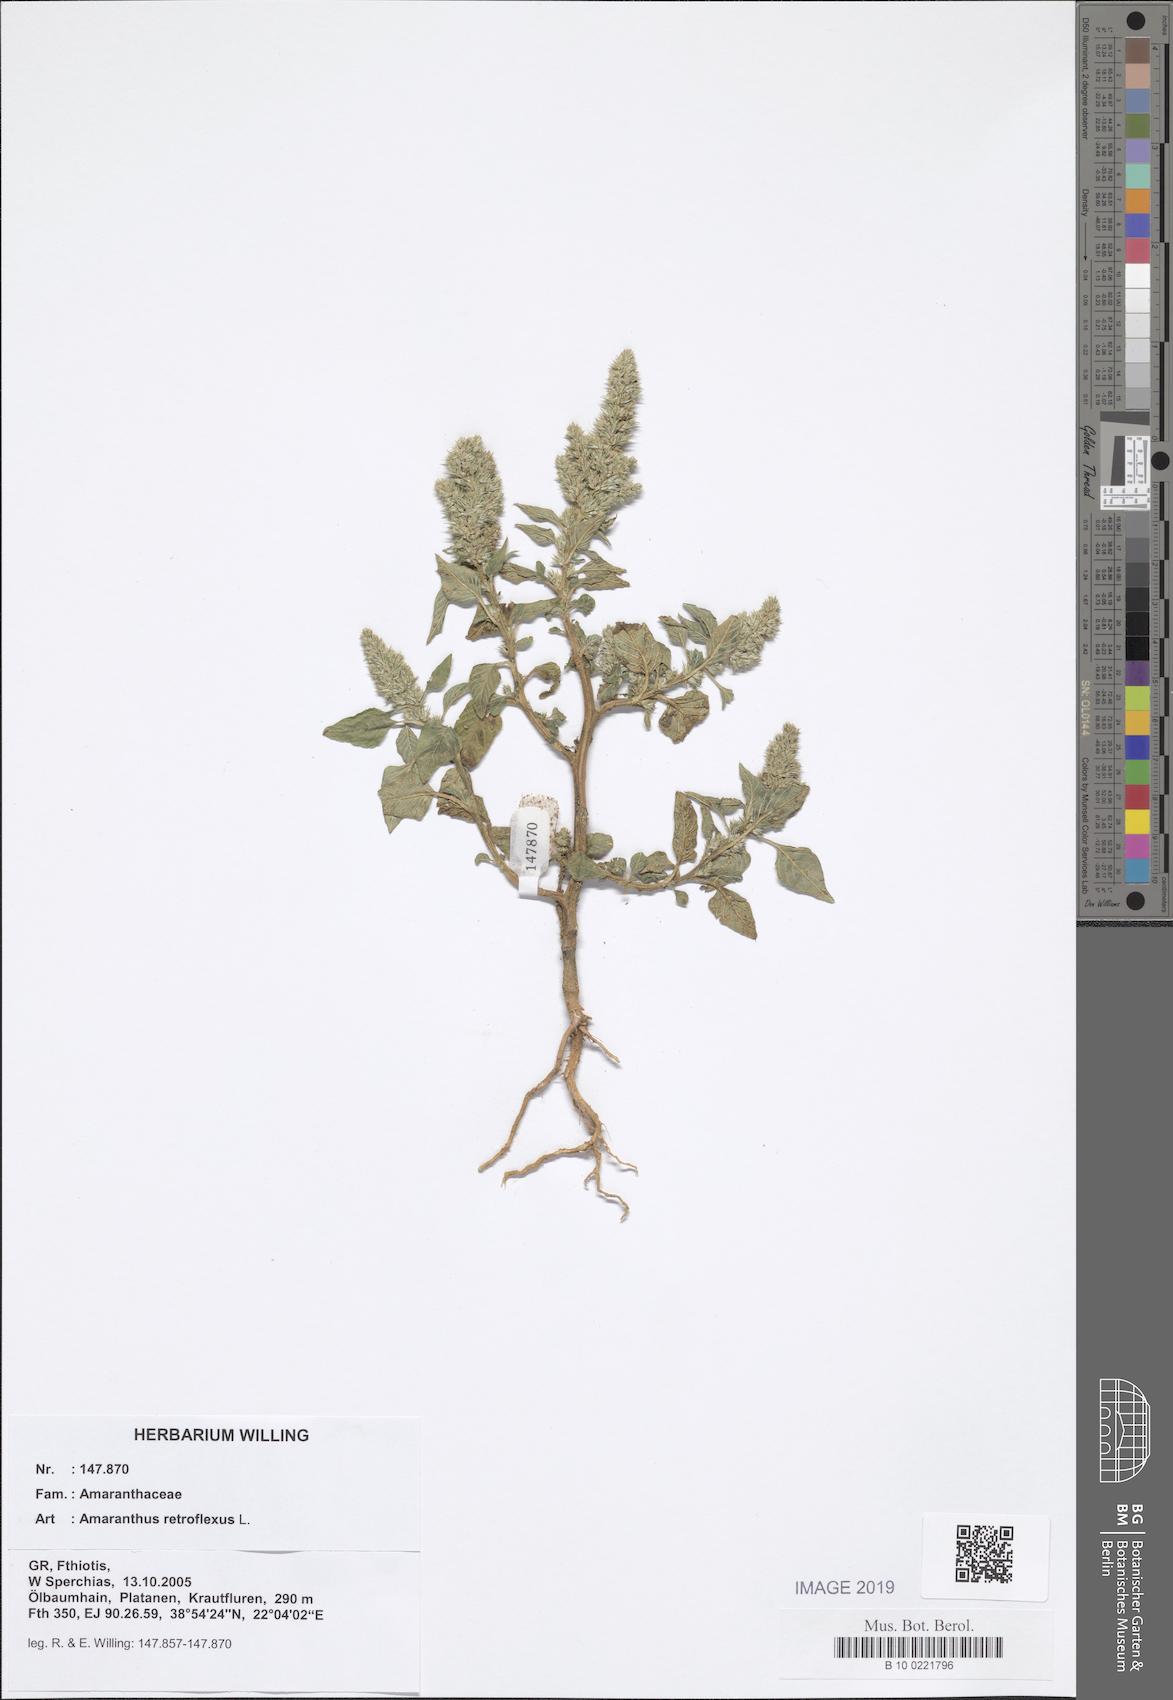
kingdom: Plantae
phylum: Tracheophyta
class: Magnoliopsida
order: Caryophyllales
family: Amaranthaceae
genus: Amaranthus
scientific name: Amaranthus retroflexus
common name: Redroot amaranth
